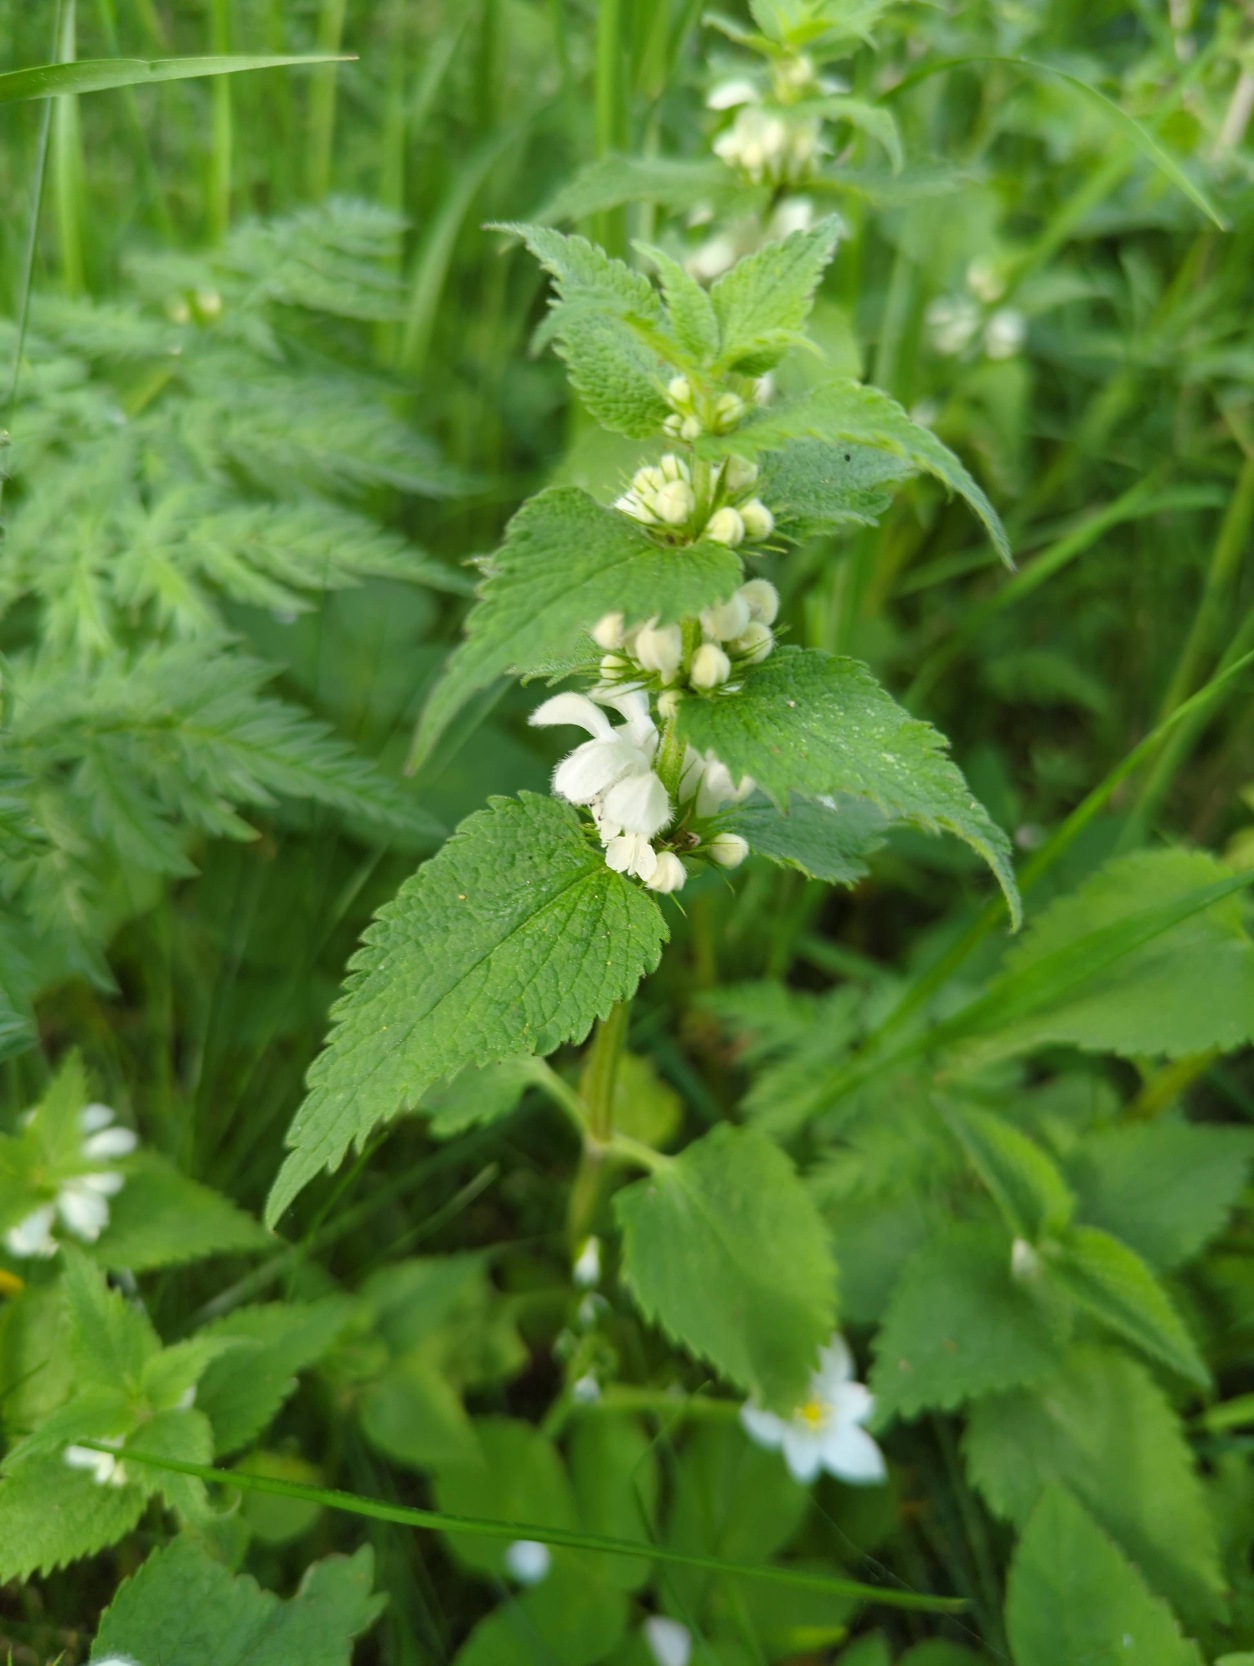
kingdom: Plantae
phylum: Tracheophyta
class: Magnoliopsida
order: Lamiales
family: Lamiaceae
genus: Lamium
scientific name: Lamium album
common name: Døvnælde
